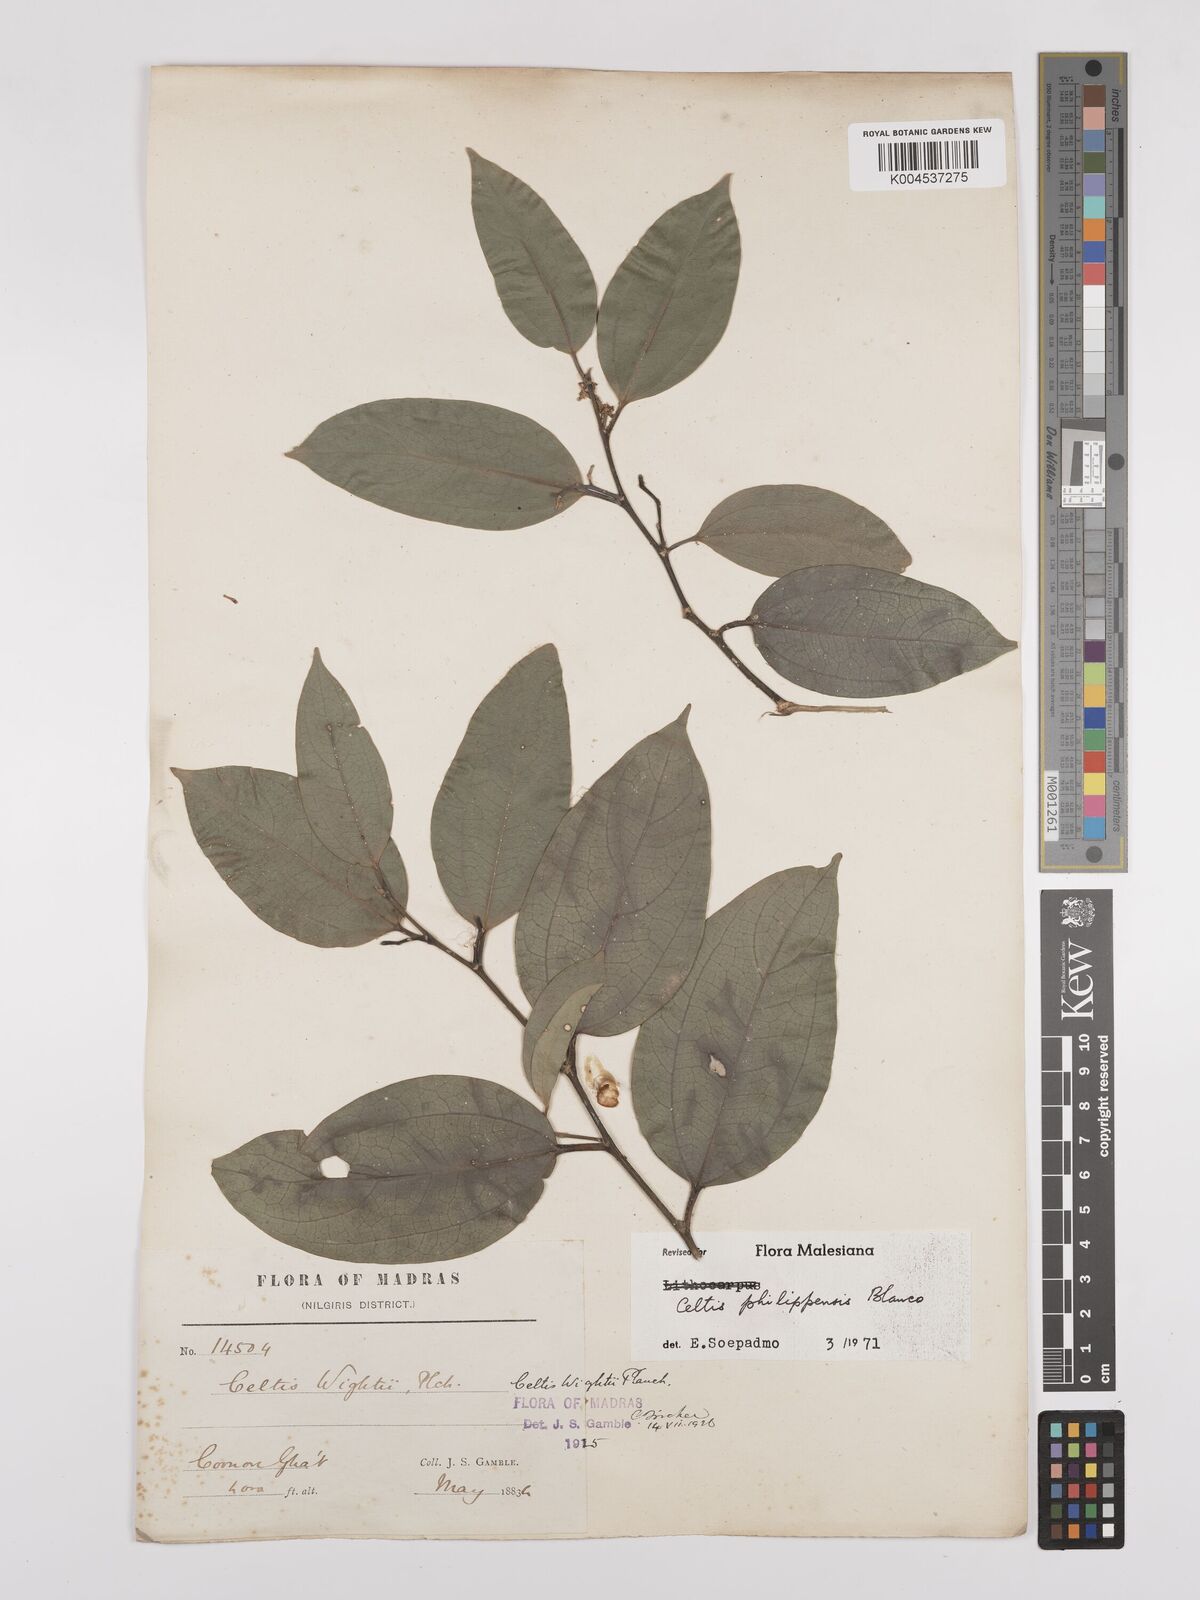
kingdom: Plantae
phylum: Tracheophyta
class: Magnoliopsida
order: Rosales
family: Cannabaceae
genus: Celtis
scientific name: Celtis philippensis
